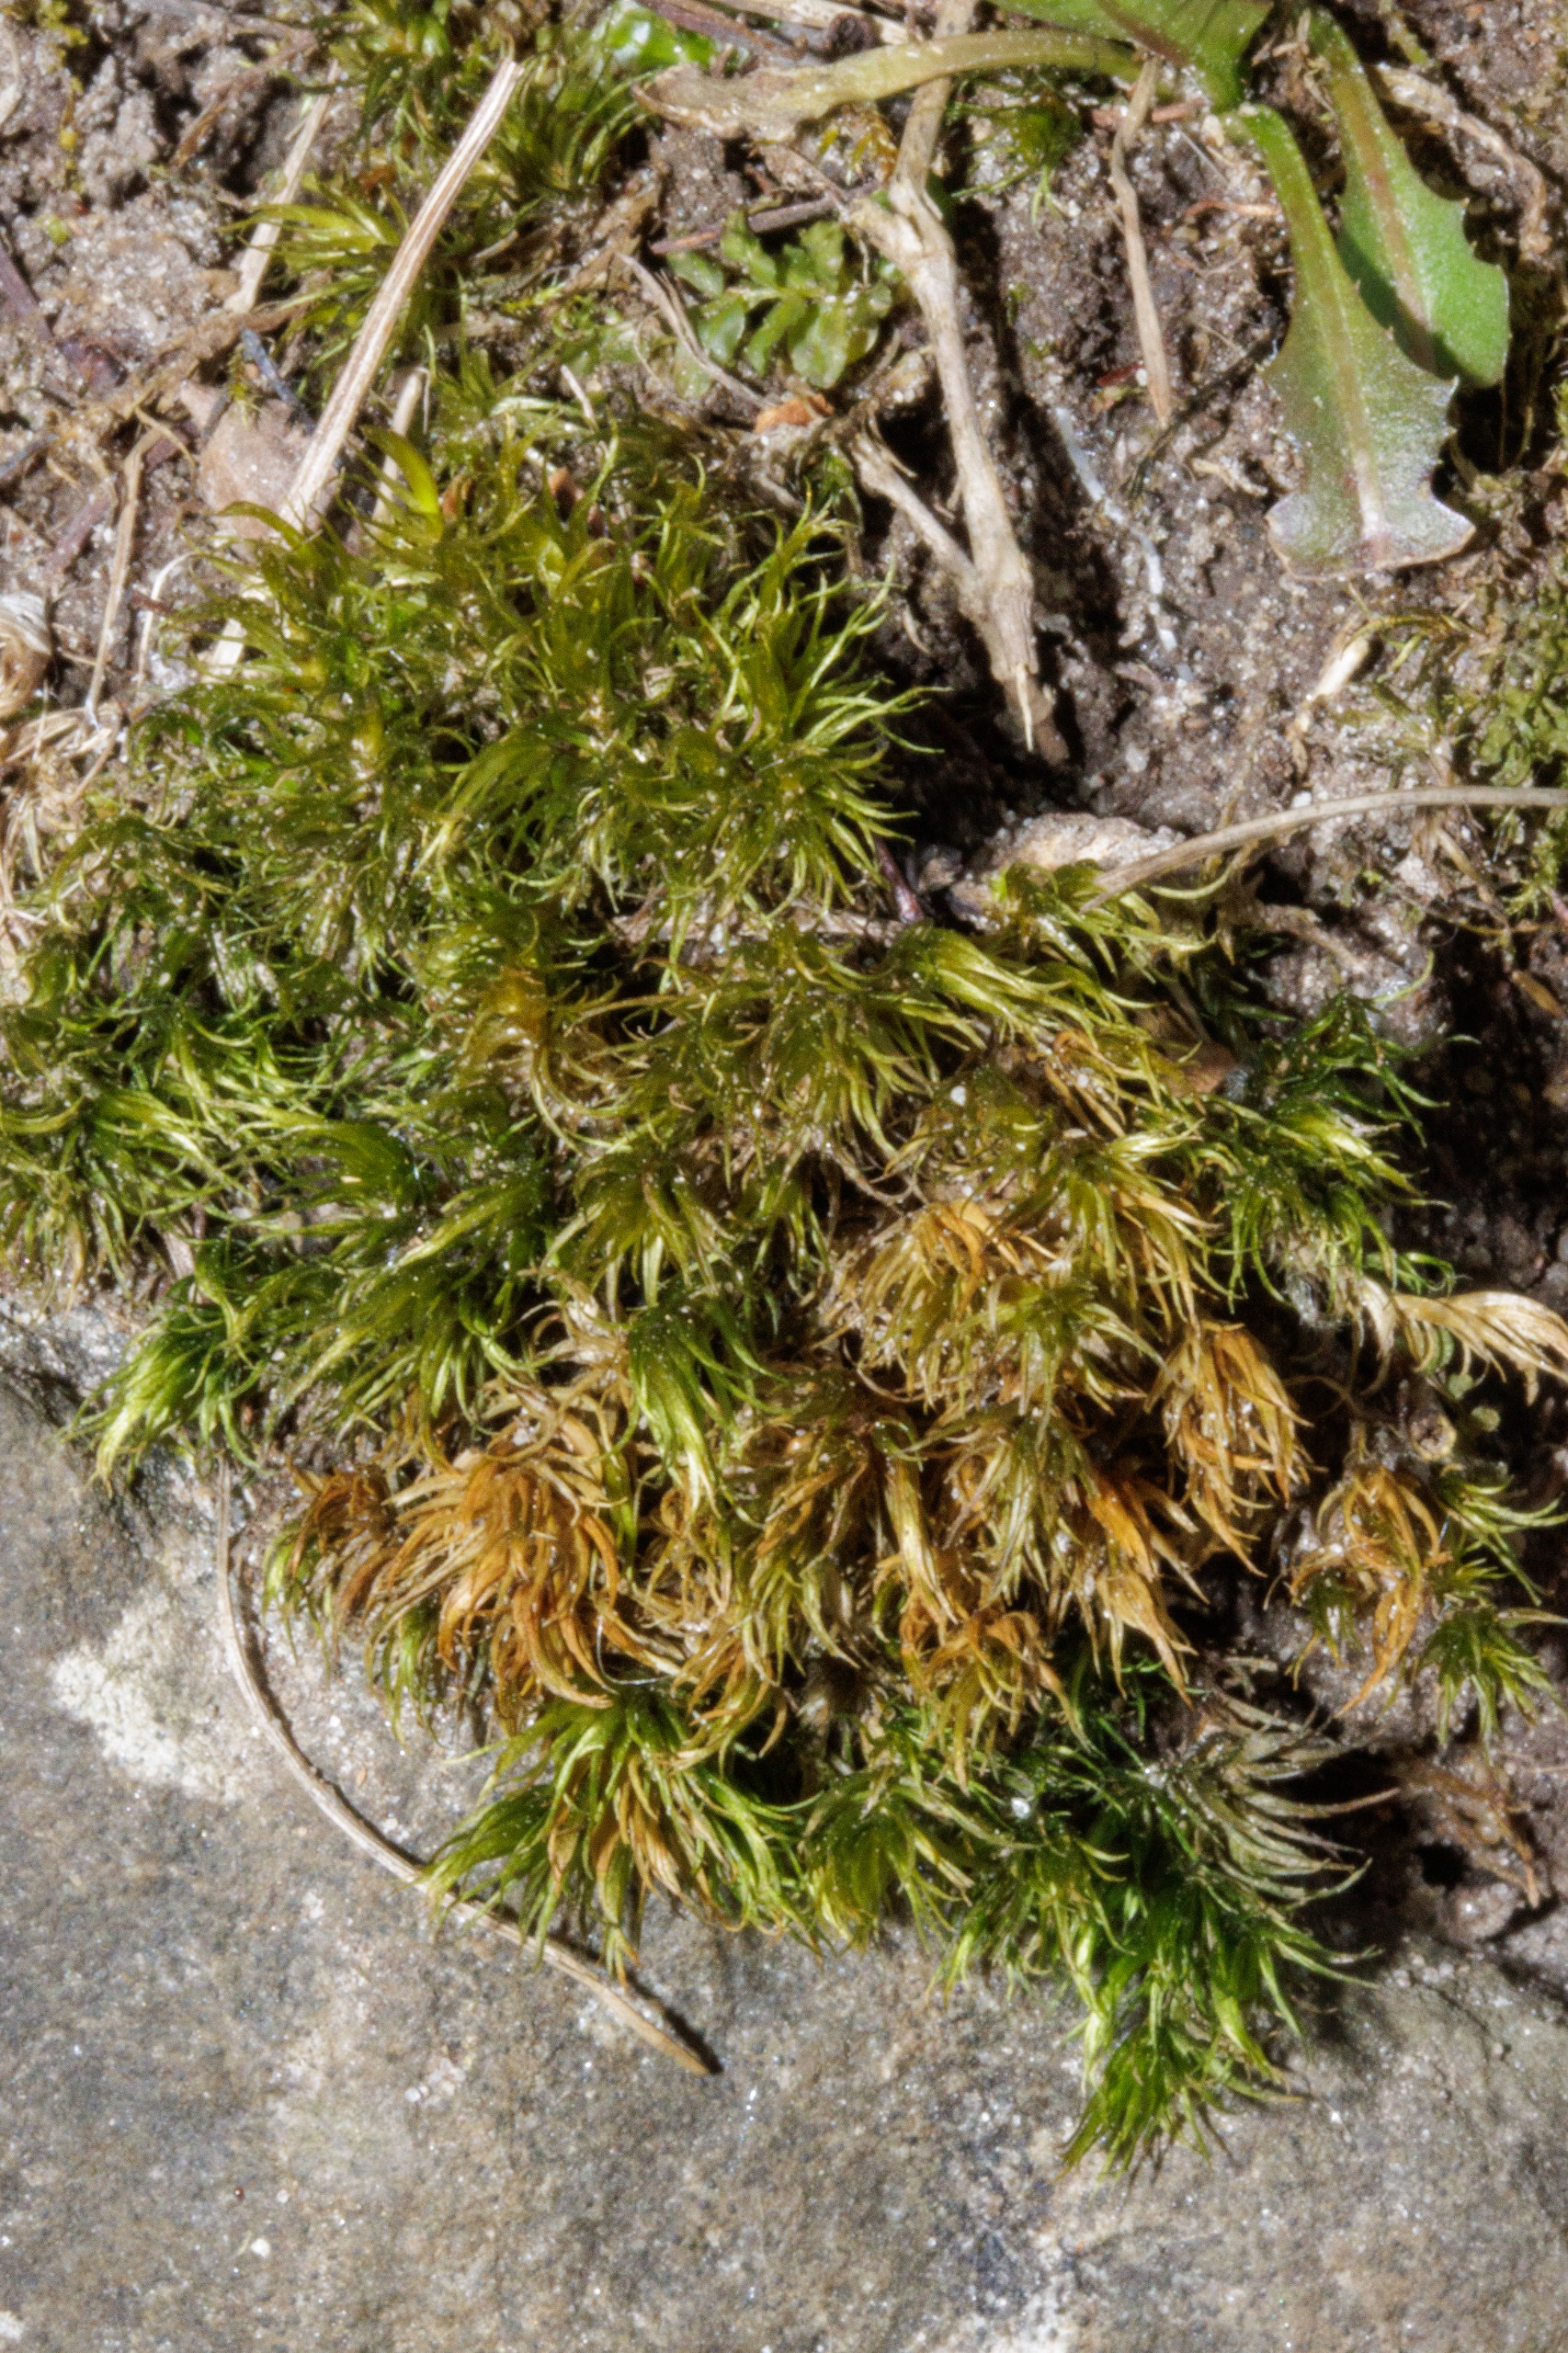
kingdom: Plantae
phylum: Bryophyta
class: Bryopsida
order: Dicranales
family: Dicranaceae
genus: Dicranum
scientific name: Dicranum scoparium
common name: Almindelig kløvtand
